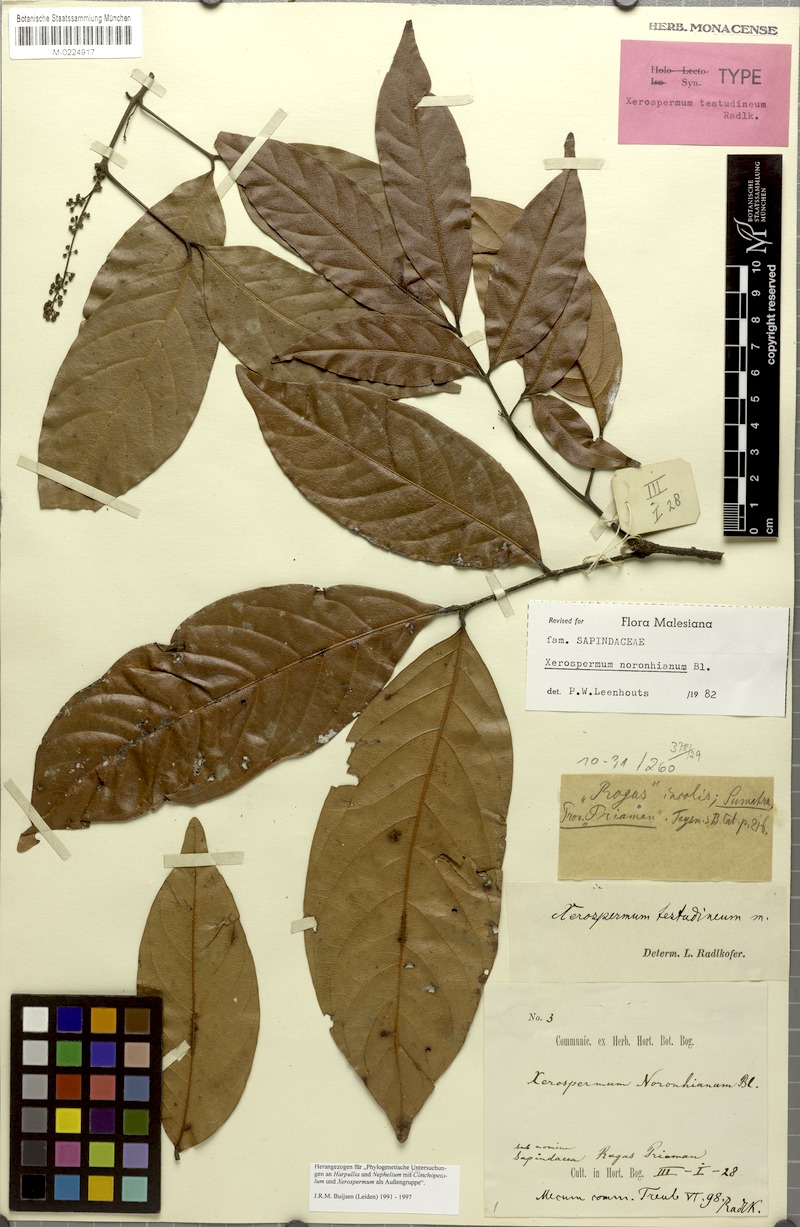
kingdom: Plantae
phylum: Tracheophyta
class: Magnoliopsida
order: Sapindales
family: Sapindaceae
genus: Xerospermum
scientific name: Xerospermum noronhianum
